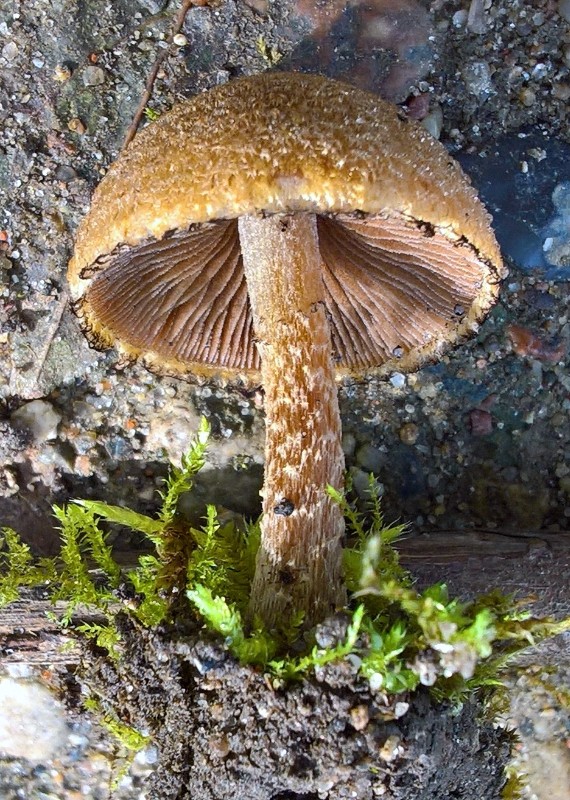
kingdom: Fungi
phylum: Basidiomycota
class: Agaricomycetes
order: Agaricales
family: Psathyrellaceae
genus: Lacrymaria
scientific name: Lacrymaria lacrymabunda
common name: grædende mørkhat
